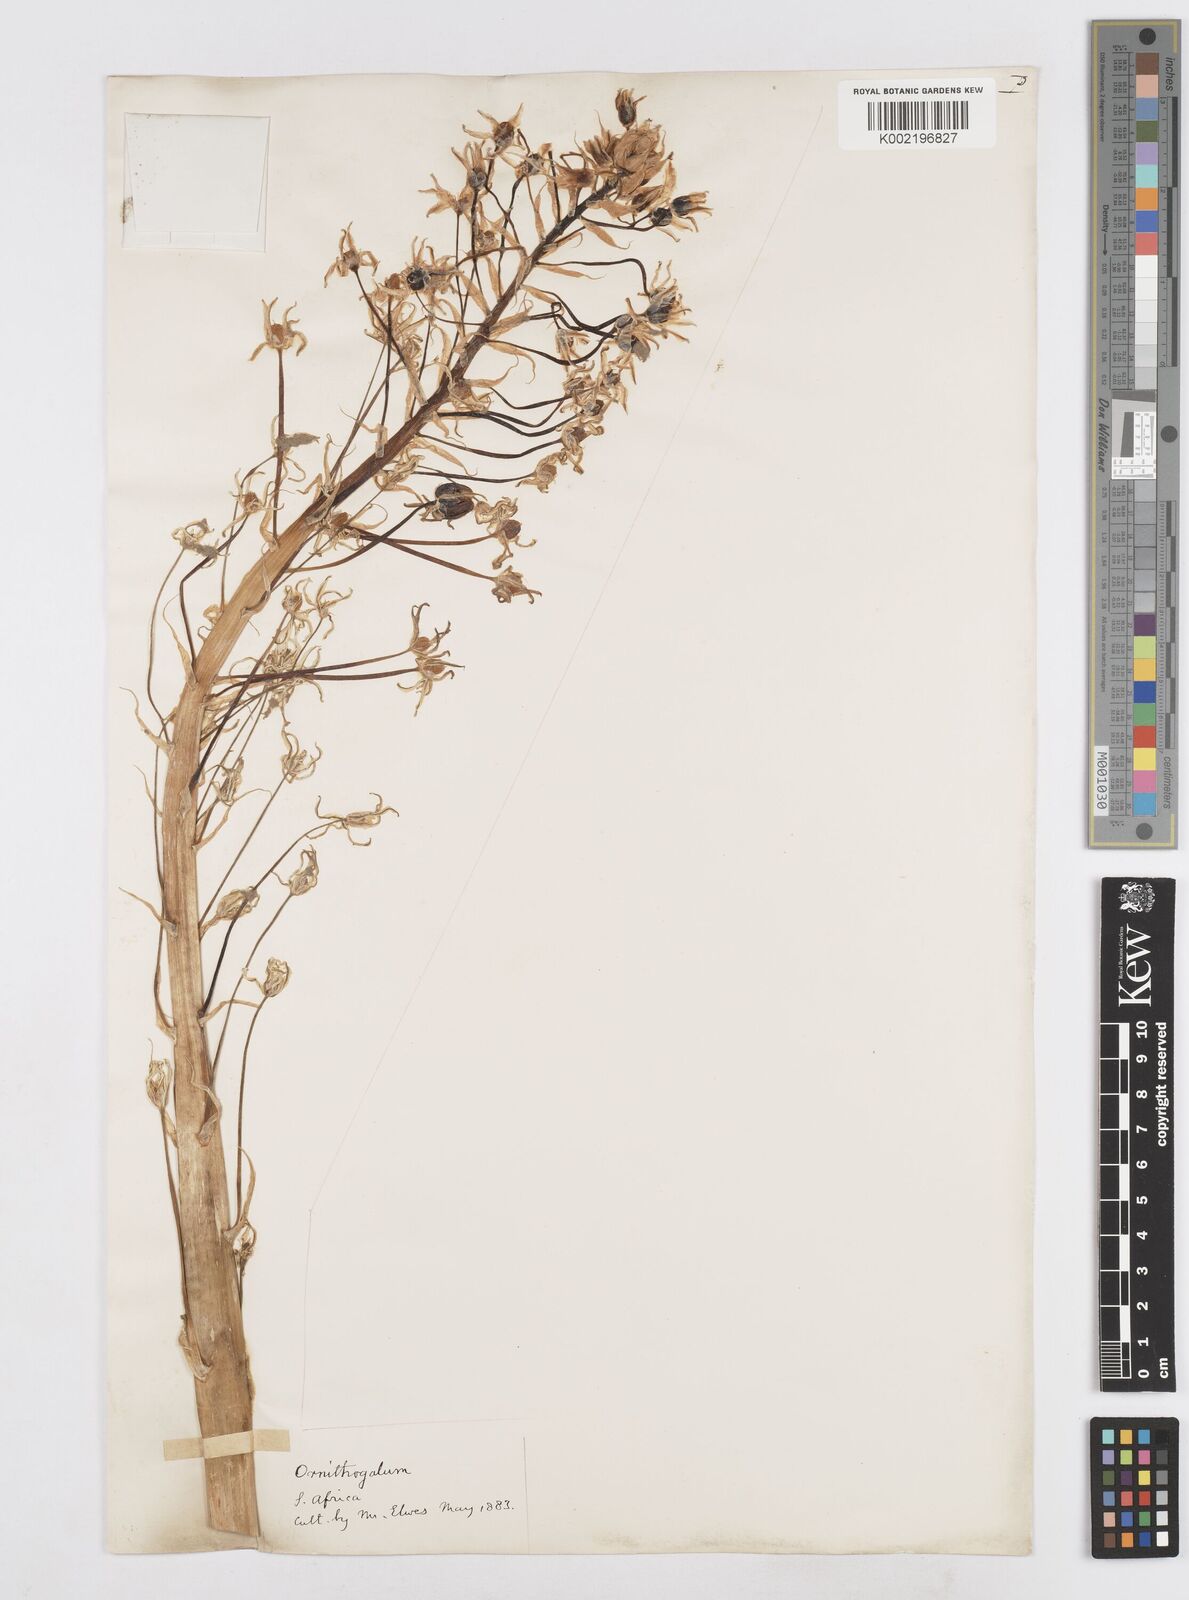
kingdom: Plantae
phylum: Tracheophyta
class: Liliopsida
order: Asparagales
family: Asparagaceae
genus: Ornithogalum
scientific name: Ornithogalum
